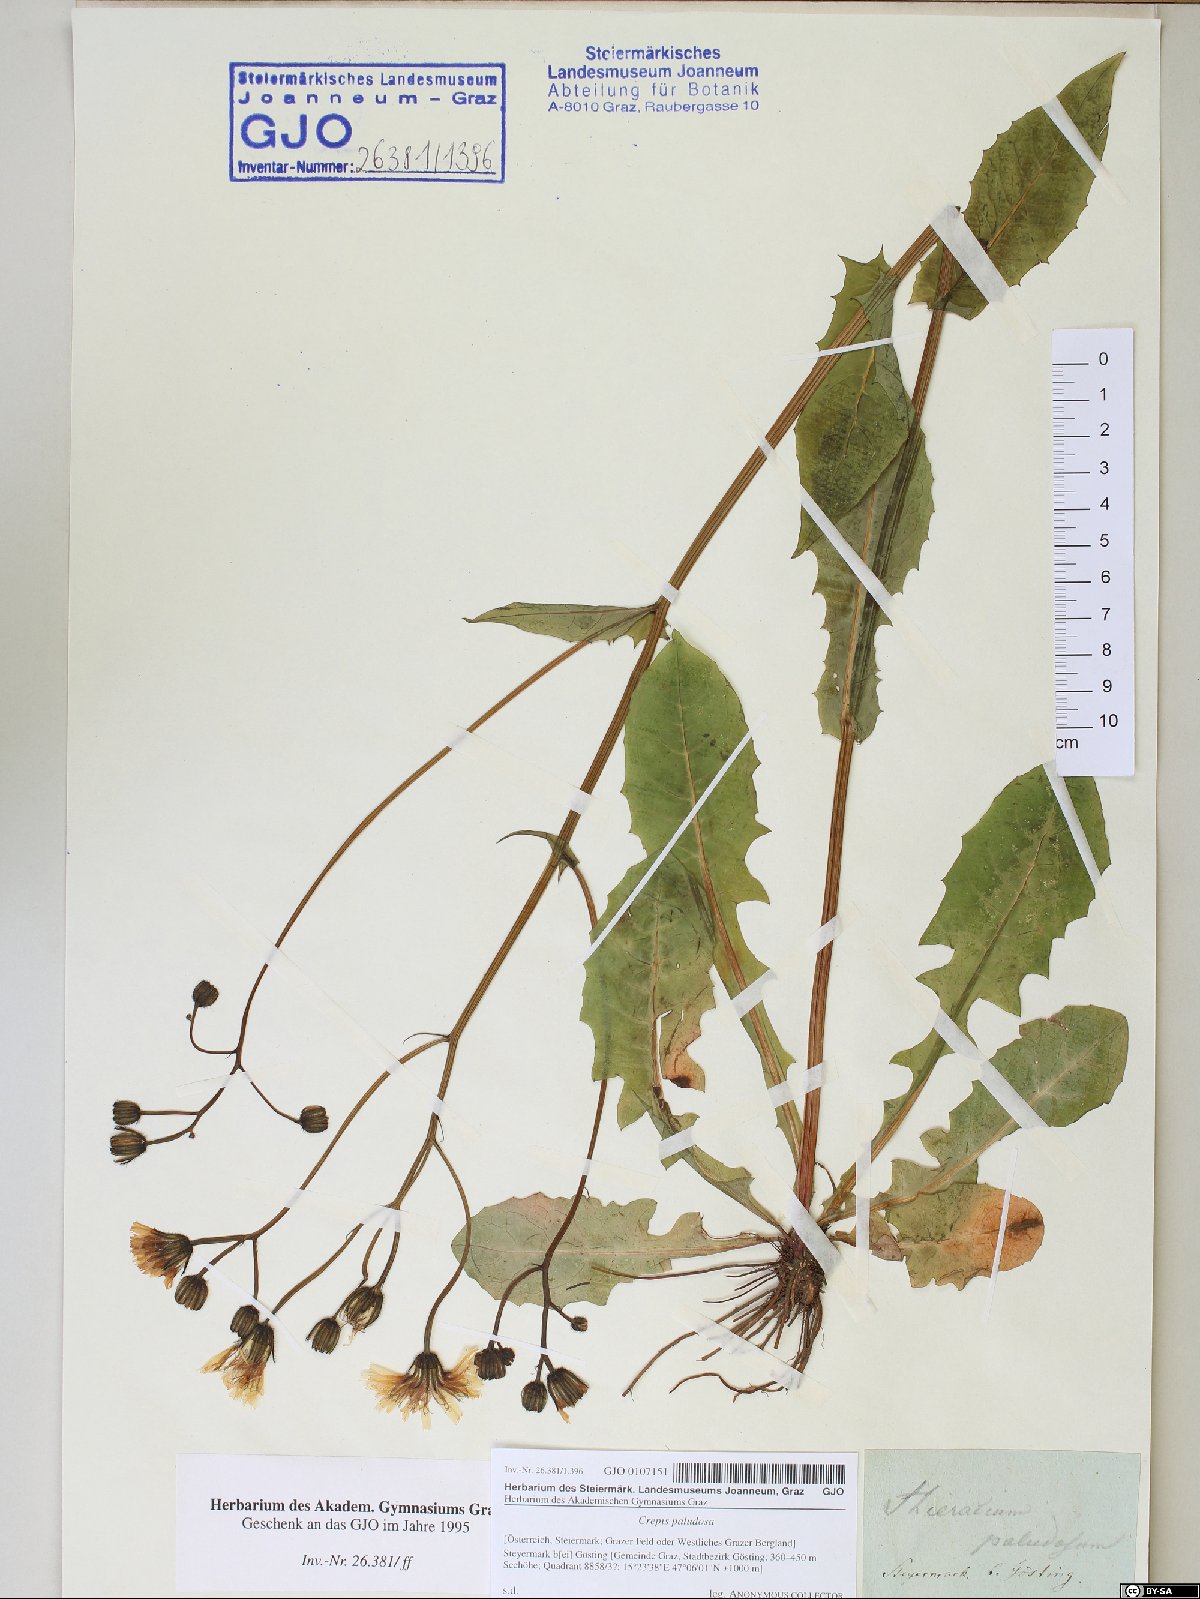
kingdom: Plantae
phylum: Tracheophyta
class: Magnoliopsida
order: Asterales
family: Asteraceae
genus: Crepis
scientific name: Crepis paludosa
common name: Marsh hawk's-beard
